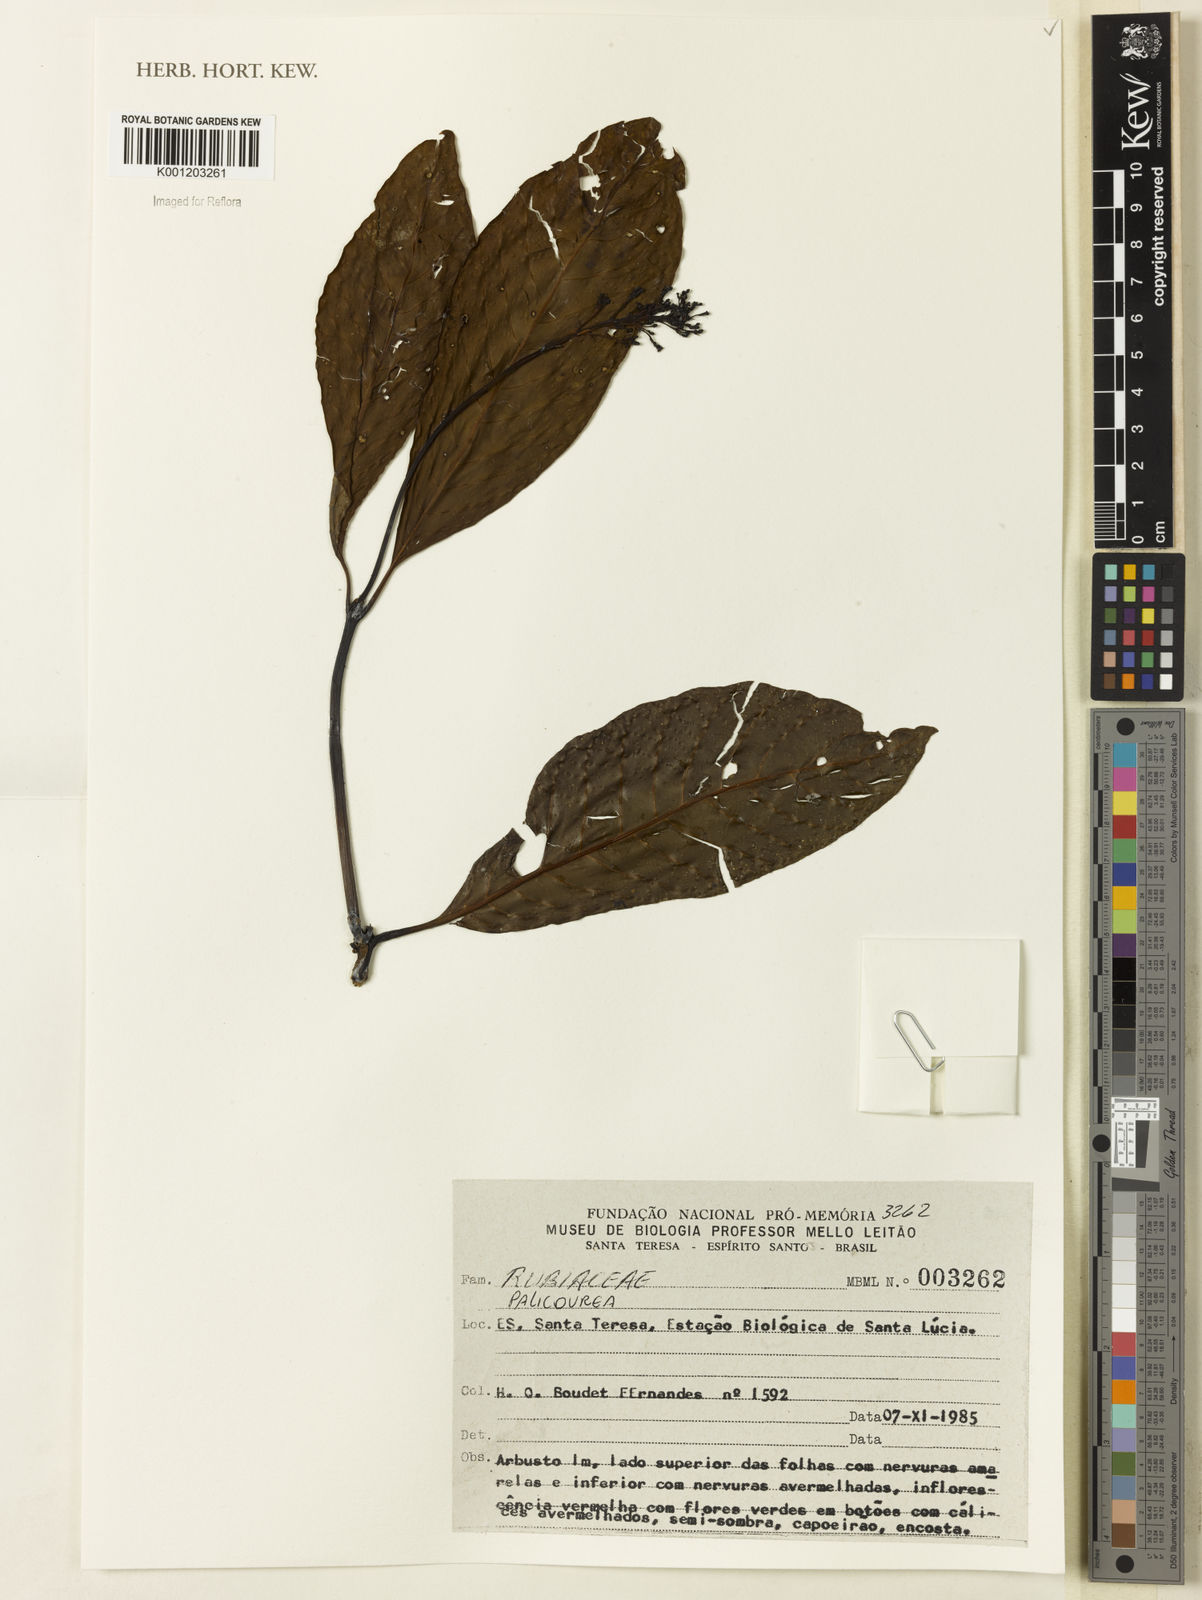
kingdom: Plantae
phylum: Tracheophyta
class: Magnoliopsida
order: Gentianales
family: Rubiaceae
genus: Palicourea
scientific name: Palicourea
